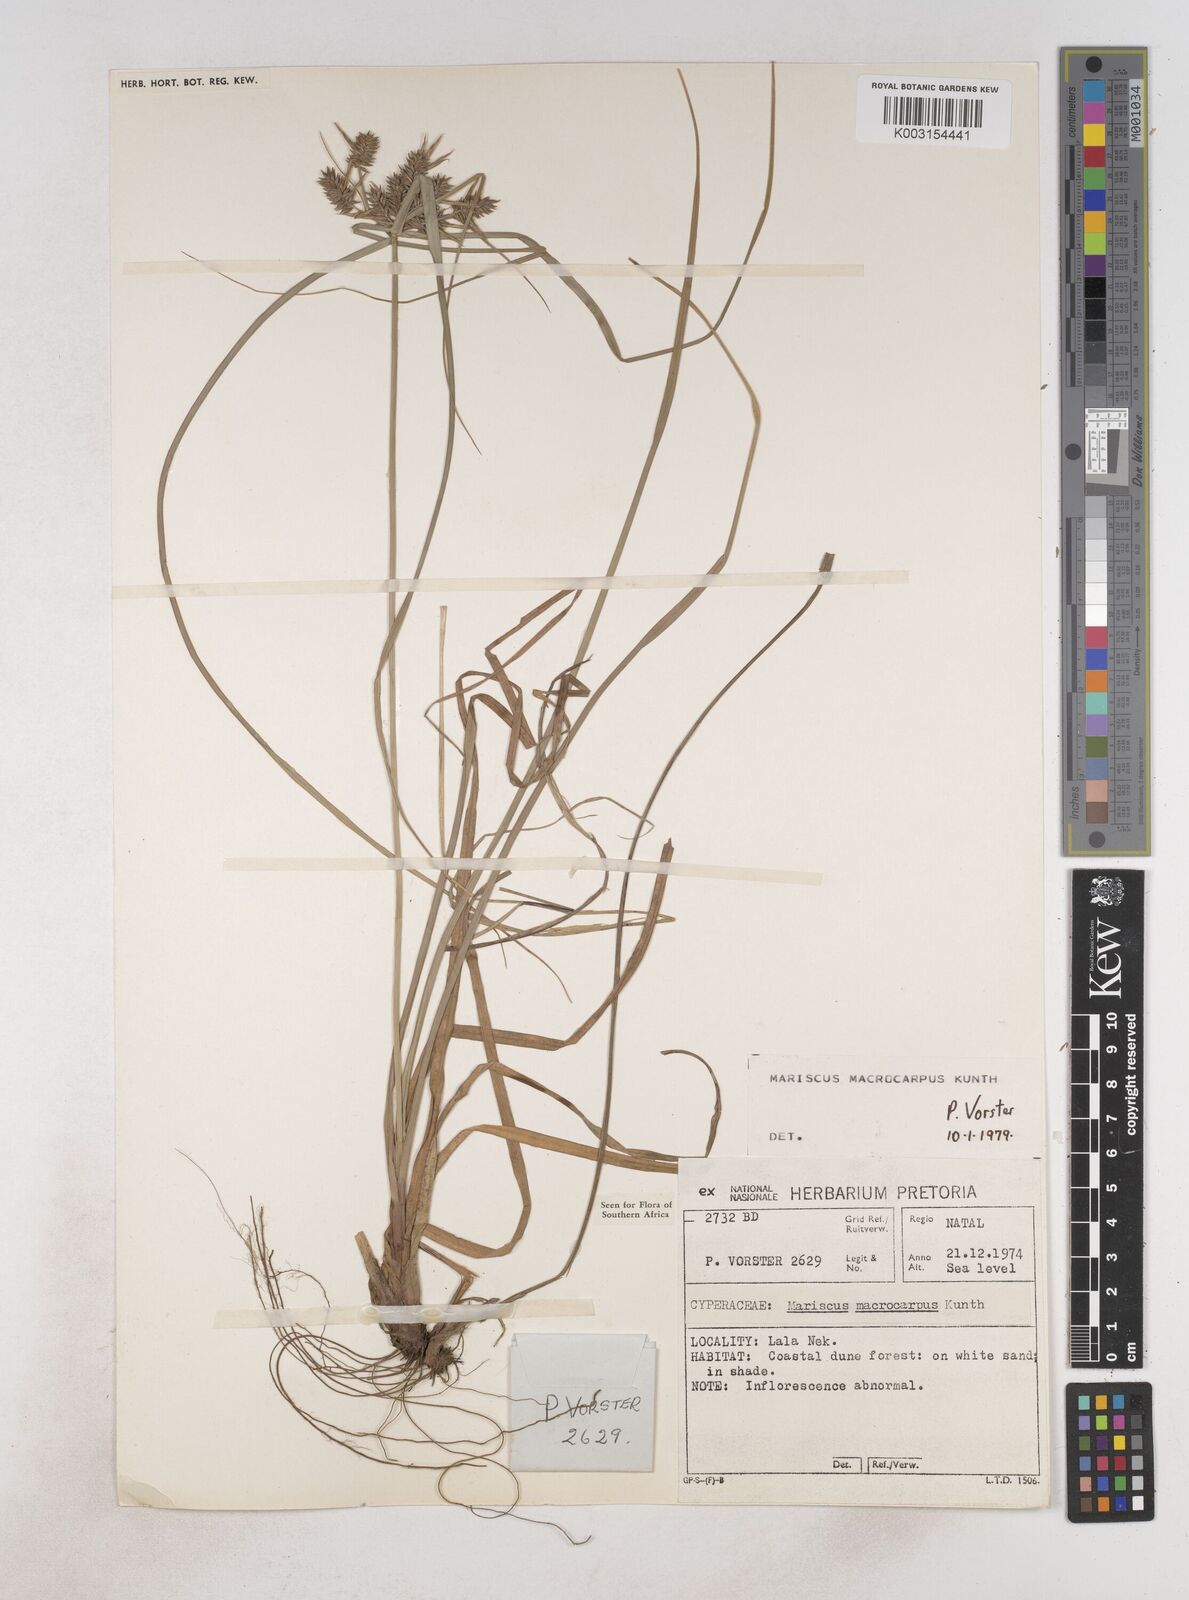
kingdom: Plantae
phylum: Tracheophyta
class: Liliopsida
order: Poales
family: Cyperaceae
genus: Cyperus
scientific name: Cyperus macrocarpus
